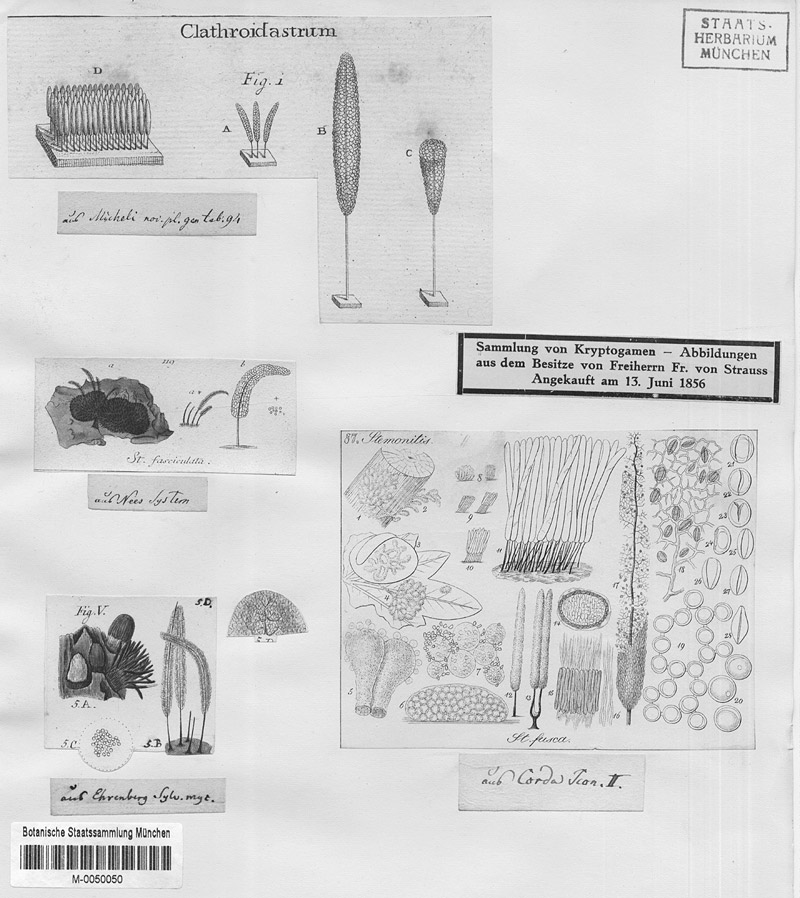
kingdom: Protozoa
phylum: Mycetozoa
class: Myxomycetes
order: Stemonitidales
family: Stemonitidaceae
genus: Stemonitis
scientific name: Stemonitis fusca
